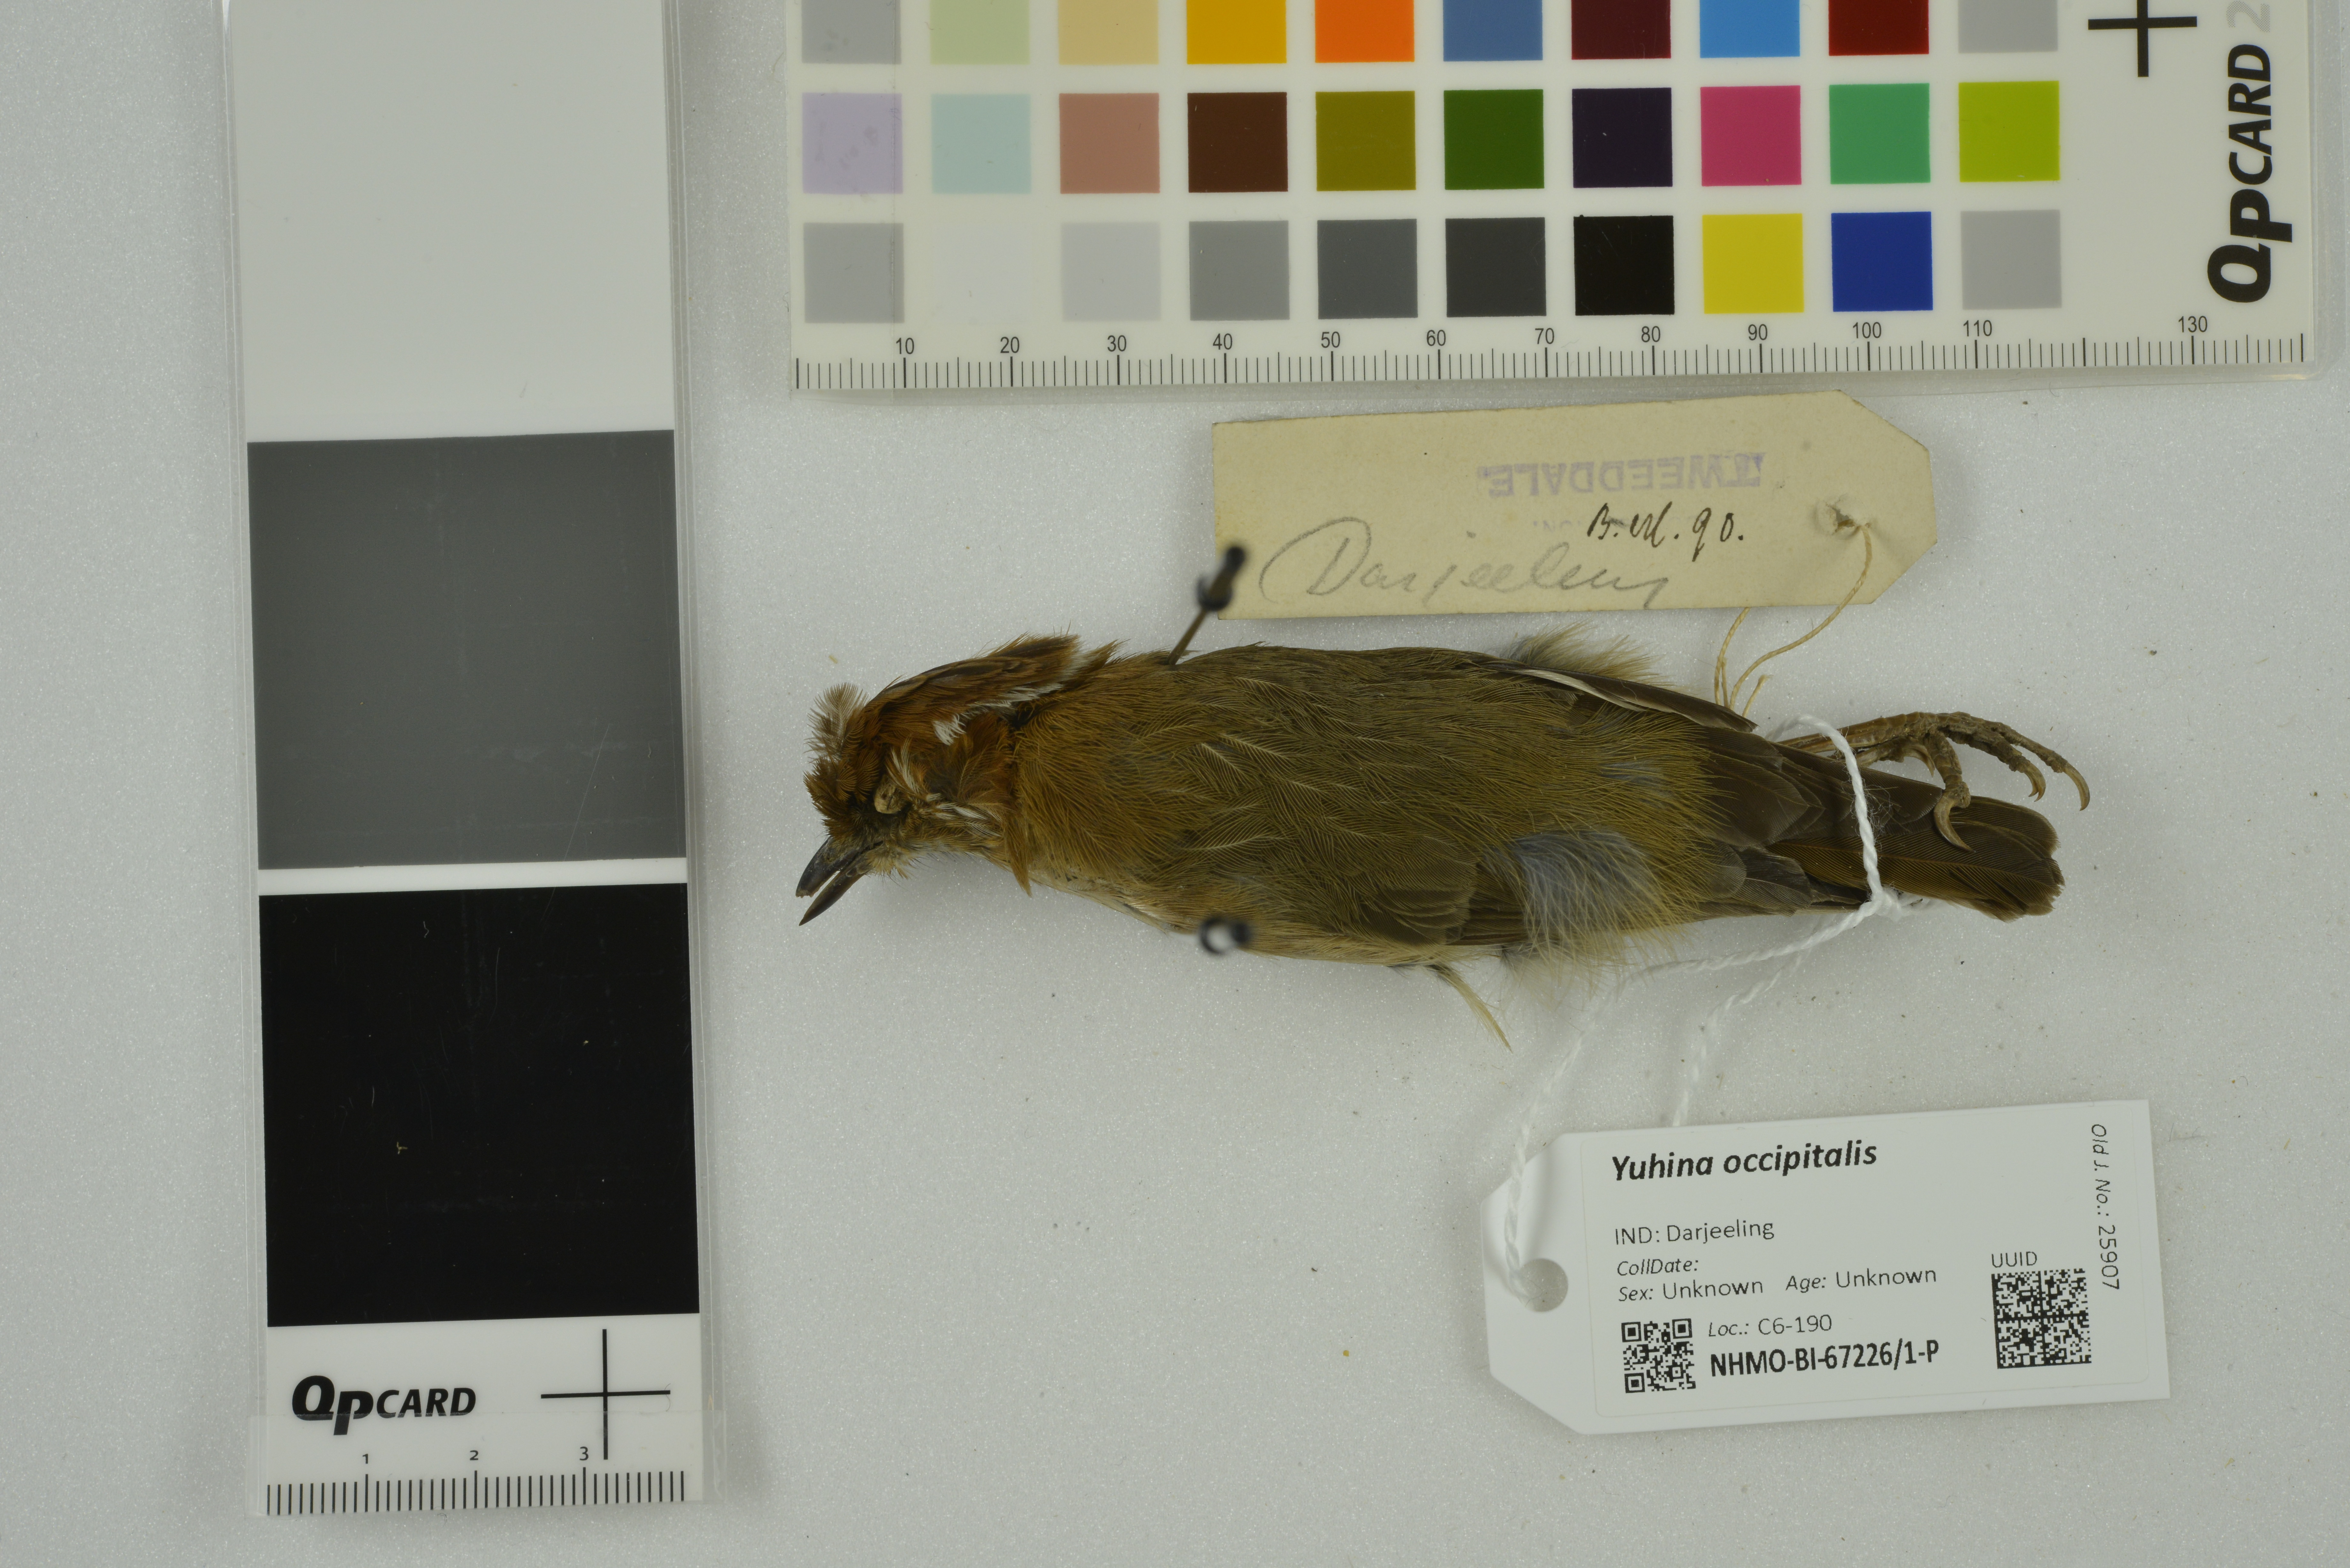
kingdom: Animalia
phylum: Chordata
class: Aves
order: Passeriformes
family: Zosteropidae
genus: Yuhina
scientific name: Yuhina occipitalis
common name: Rufous-vented yuhina
